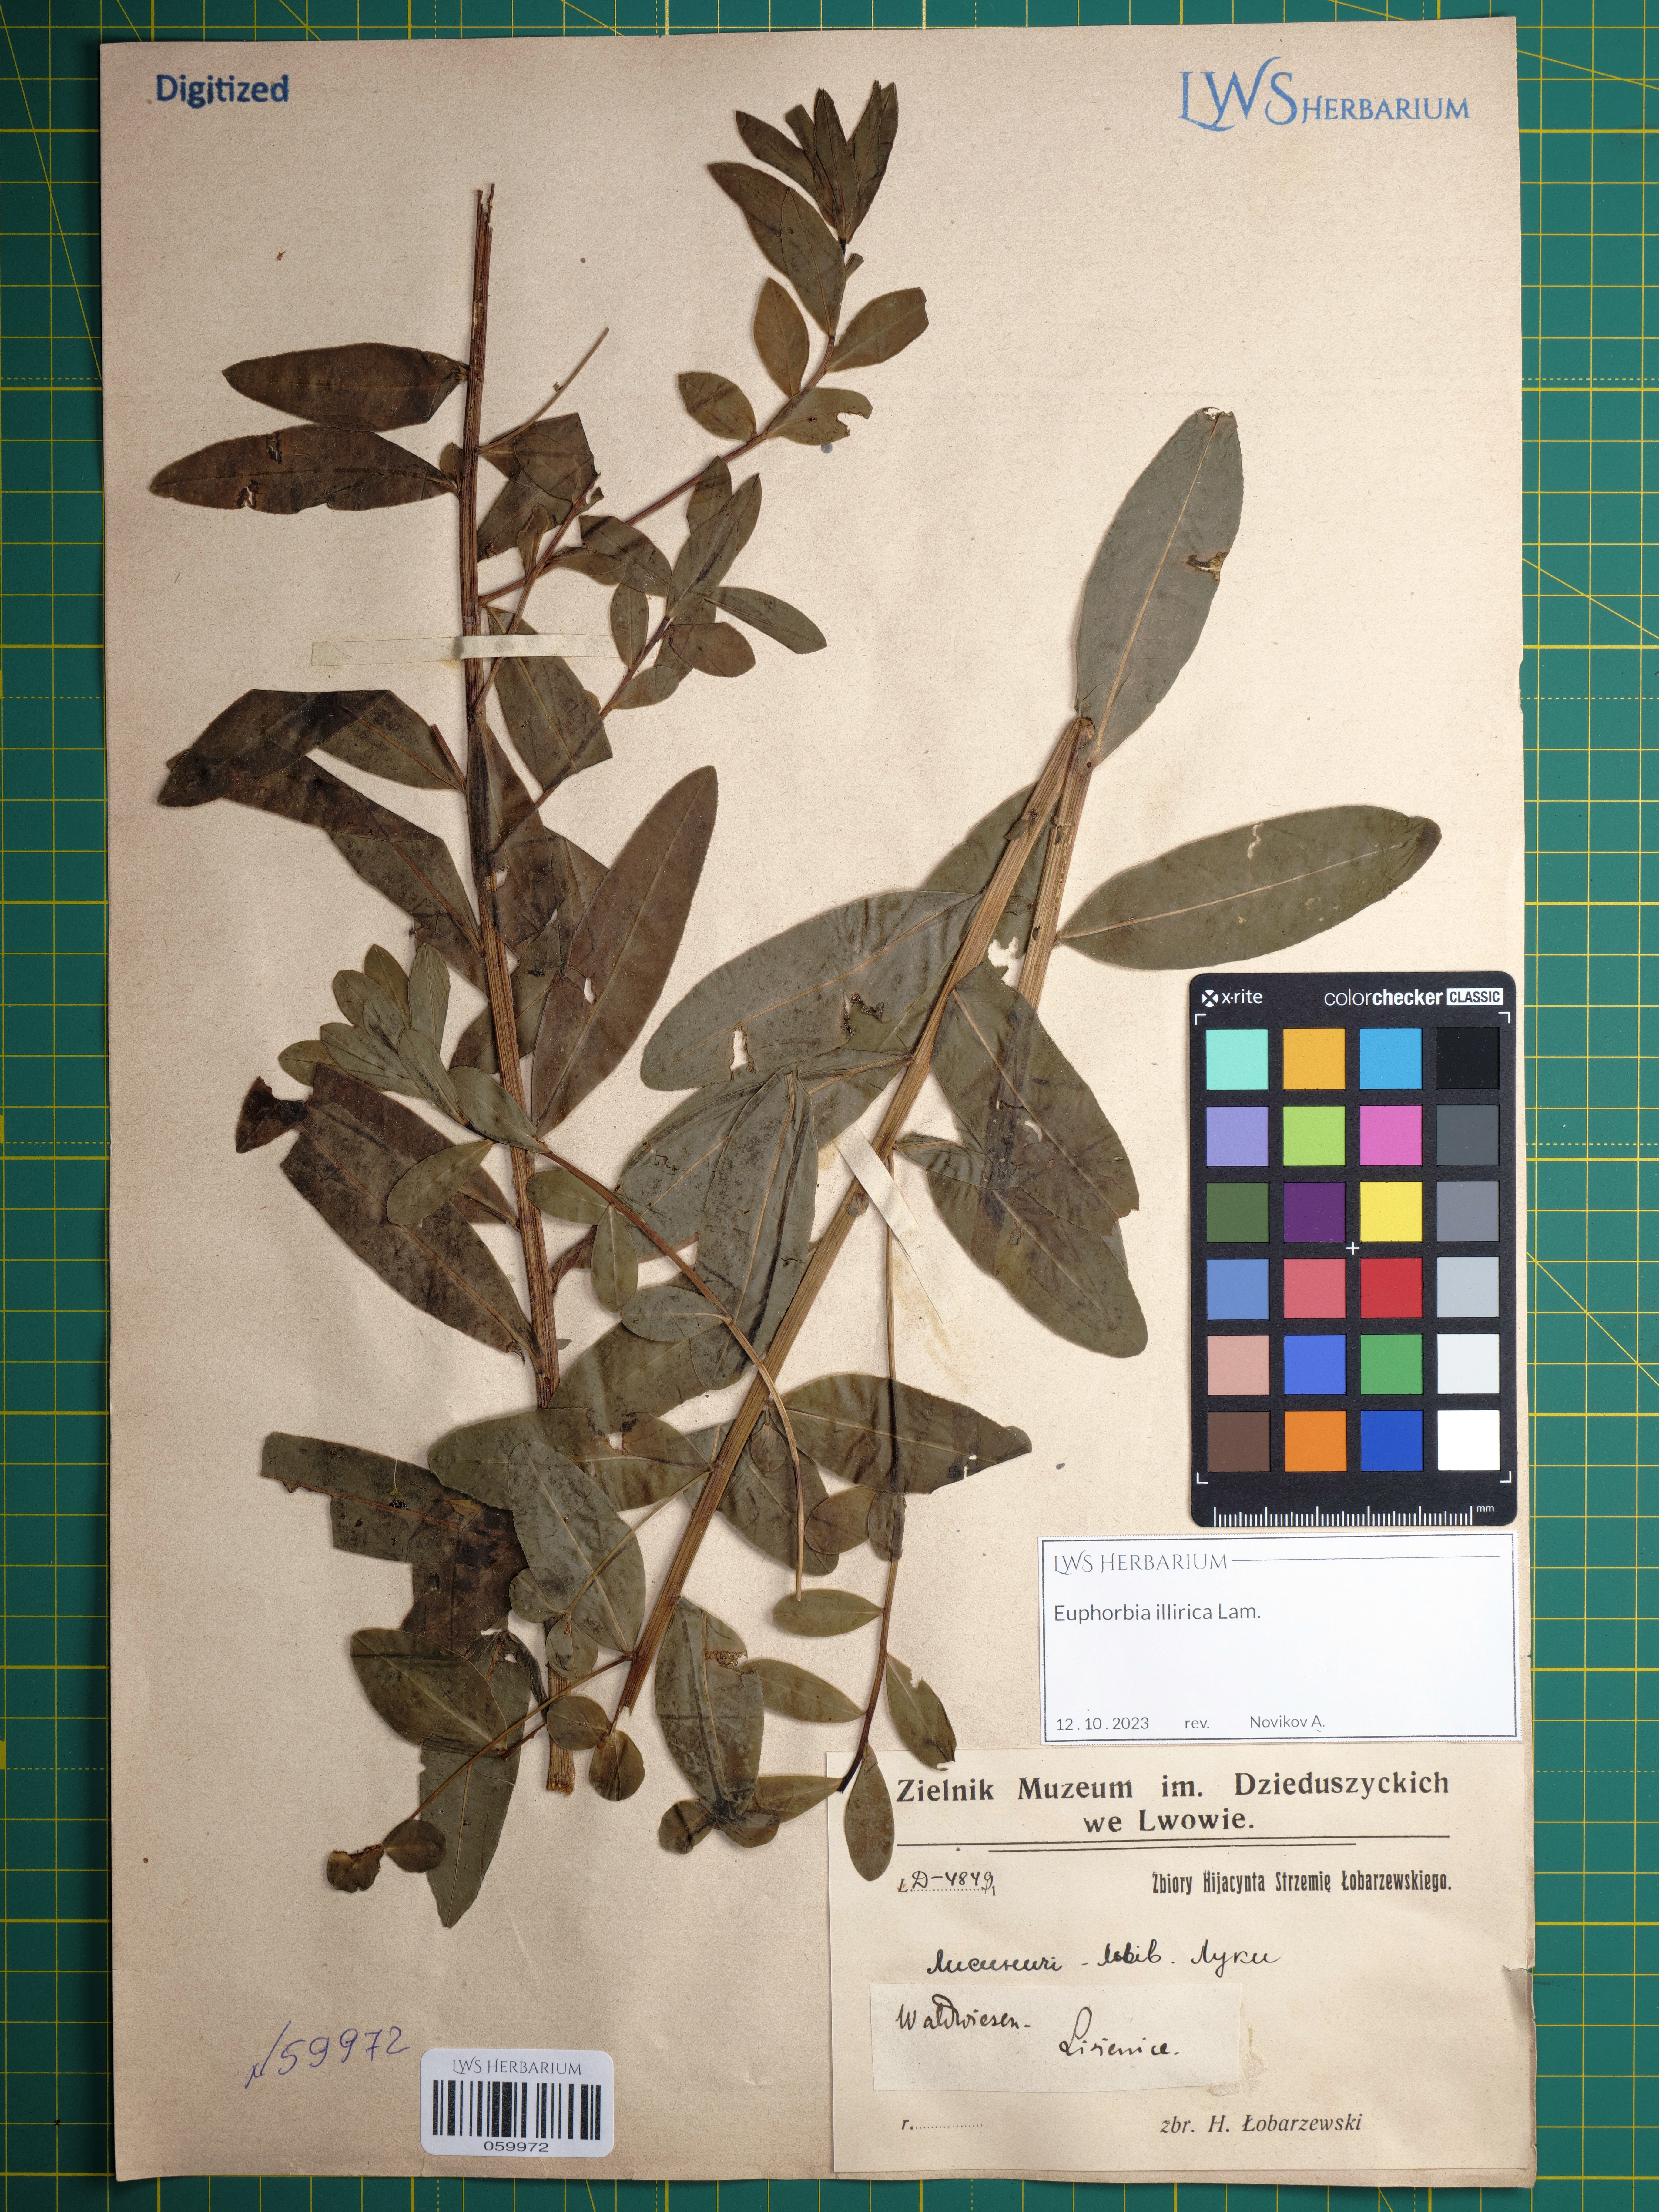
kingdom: Plantae
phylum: Tracheophyta
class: Magnoliopsida
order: Malpighiales
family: Euphorbiaceae
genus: Euphorbia
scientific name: Euphorbia illirica
